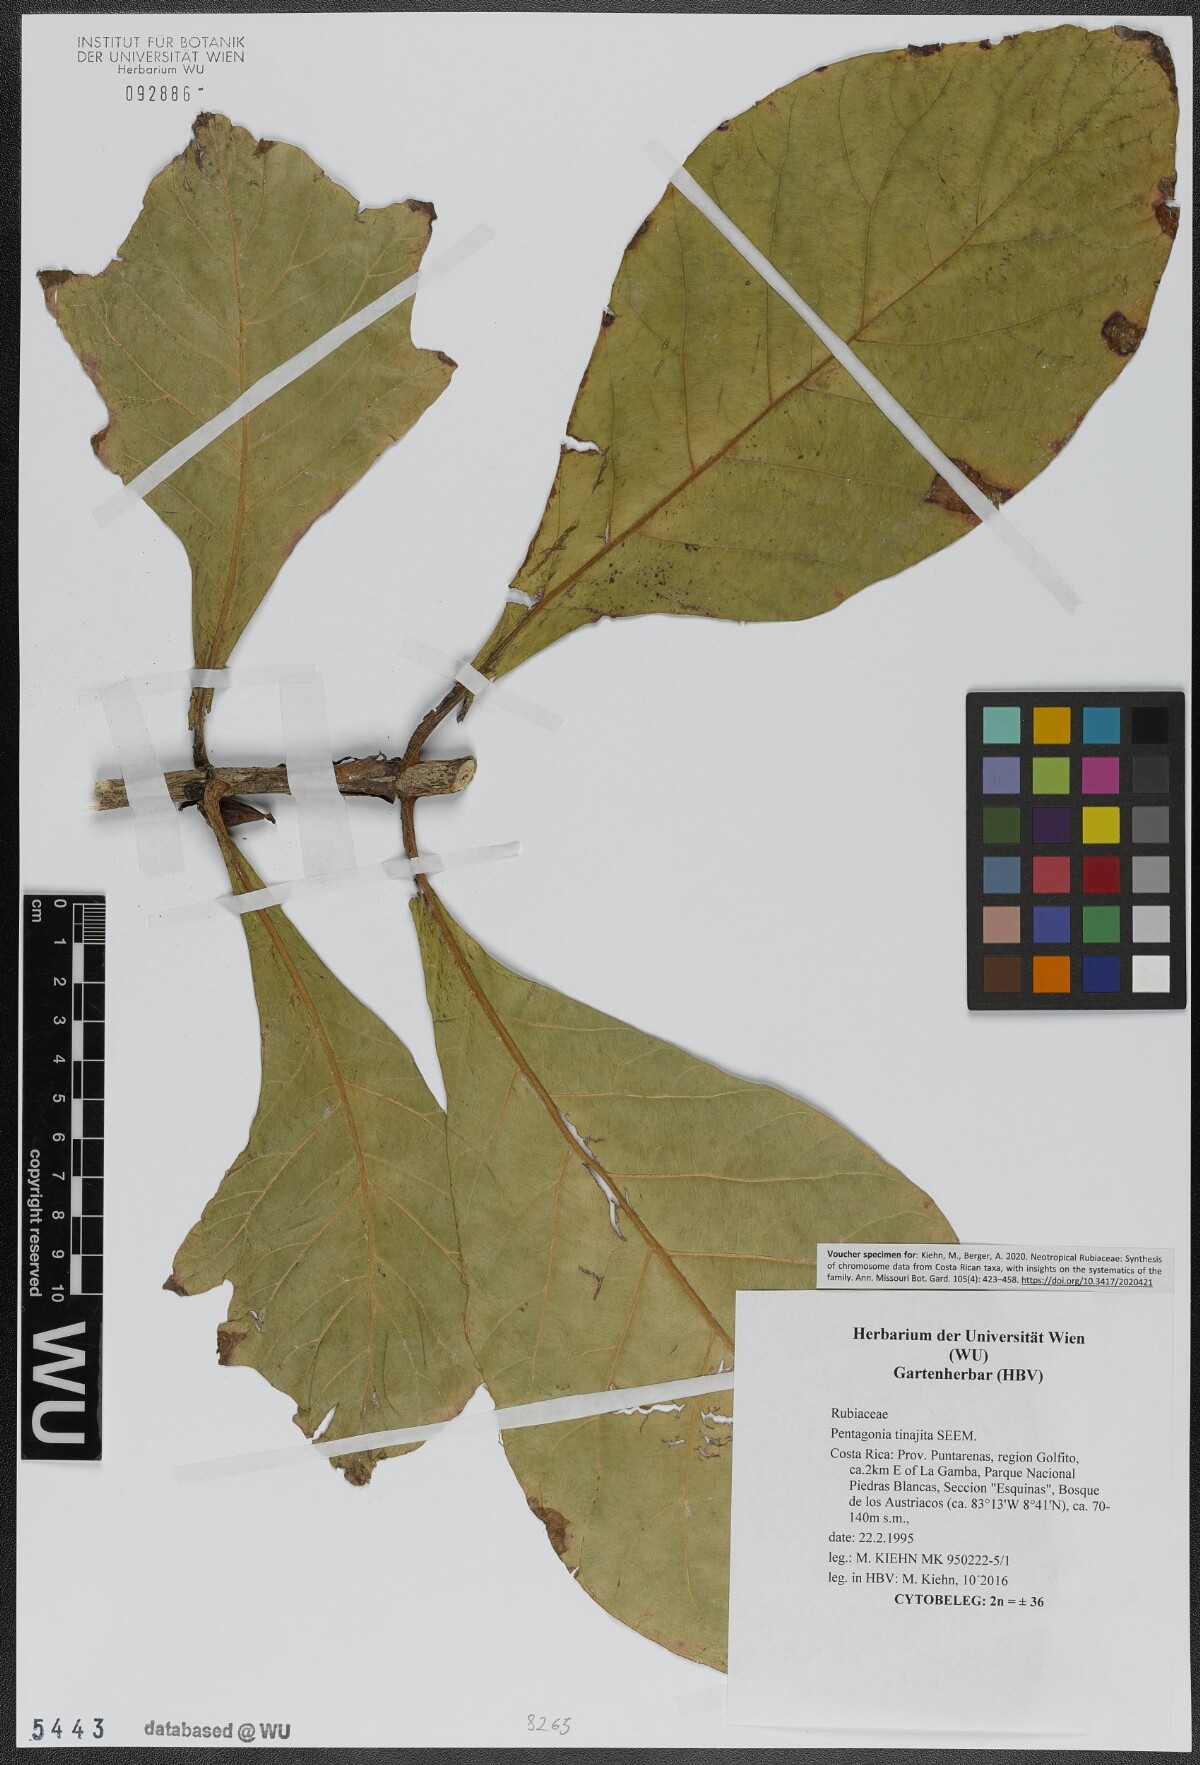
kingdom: Plantae
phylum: Tracheophyta
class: Magnoliopsida
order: Gentianales
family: Rubiaceae
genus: Pentagonia
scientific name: Pentagonia tinajita
